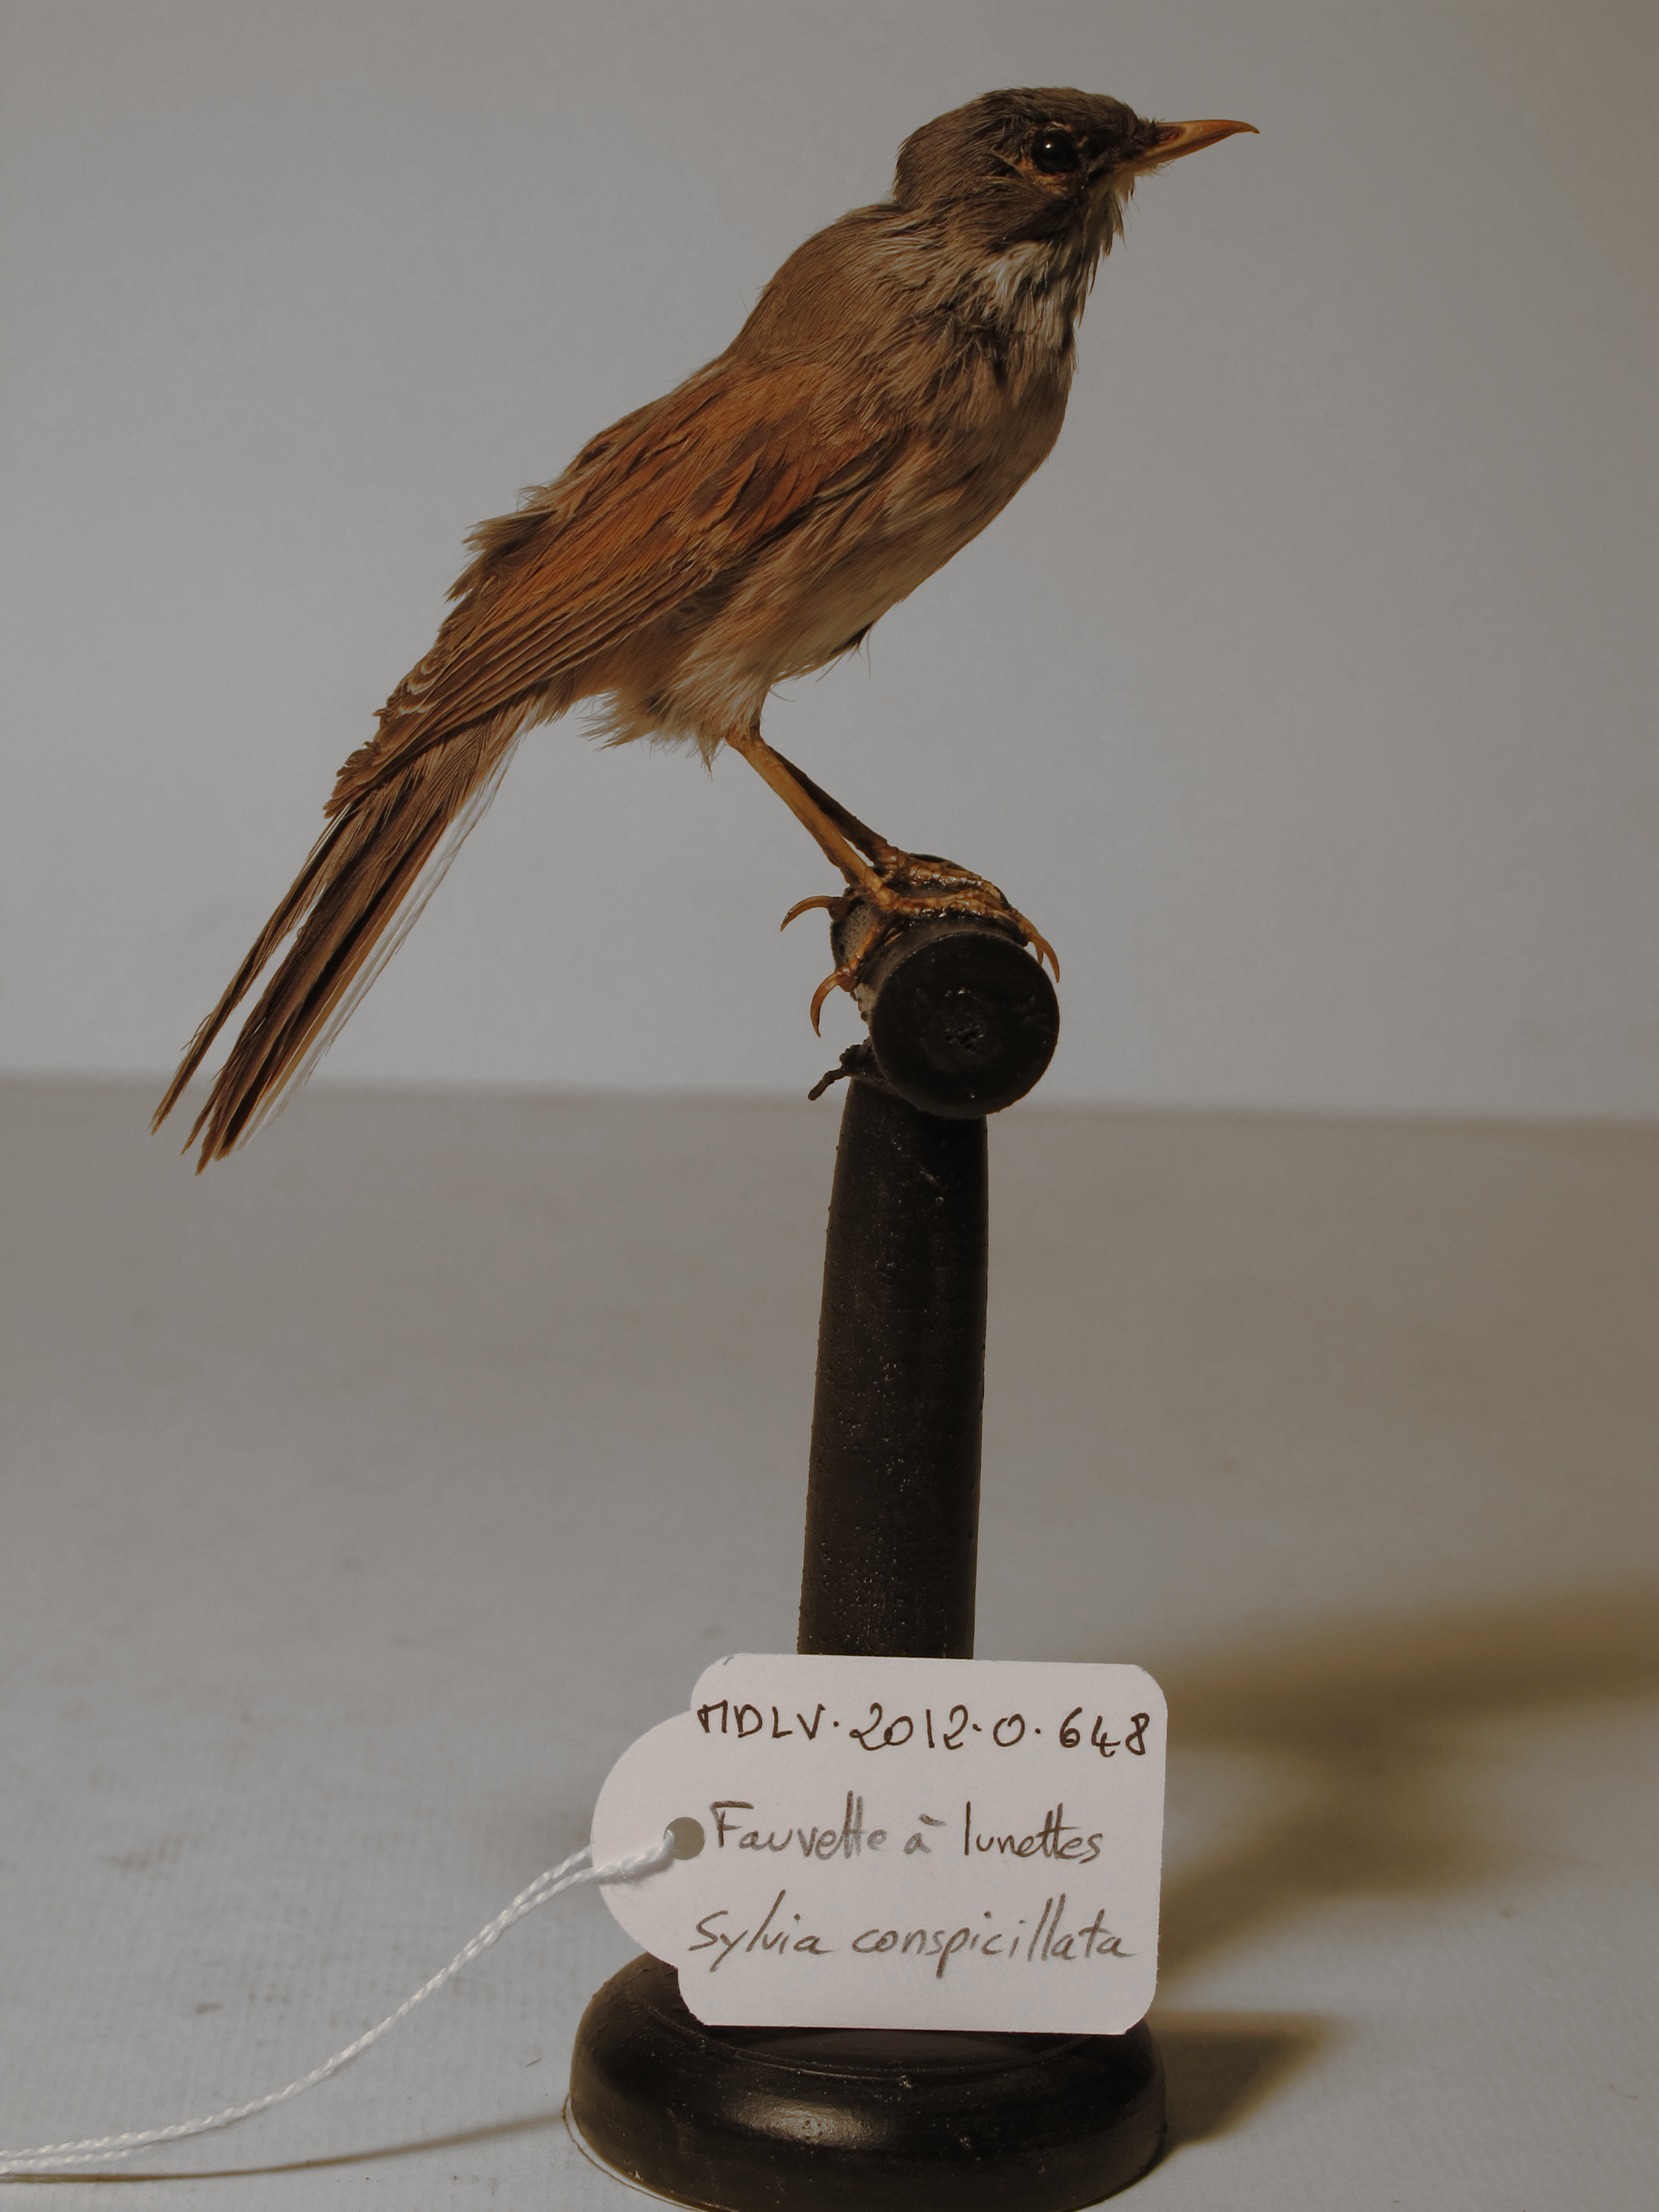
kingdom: Animalia
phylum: Chordata
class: Aves
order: Passeriformes
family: Sylviidae
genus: Sylvia
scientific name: Sylvia conspicillata
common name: Spectacled Warbler
